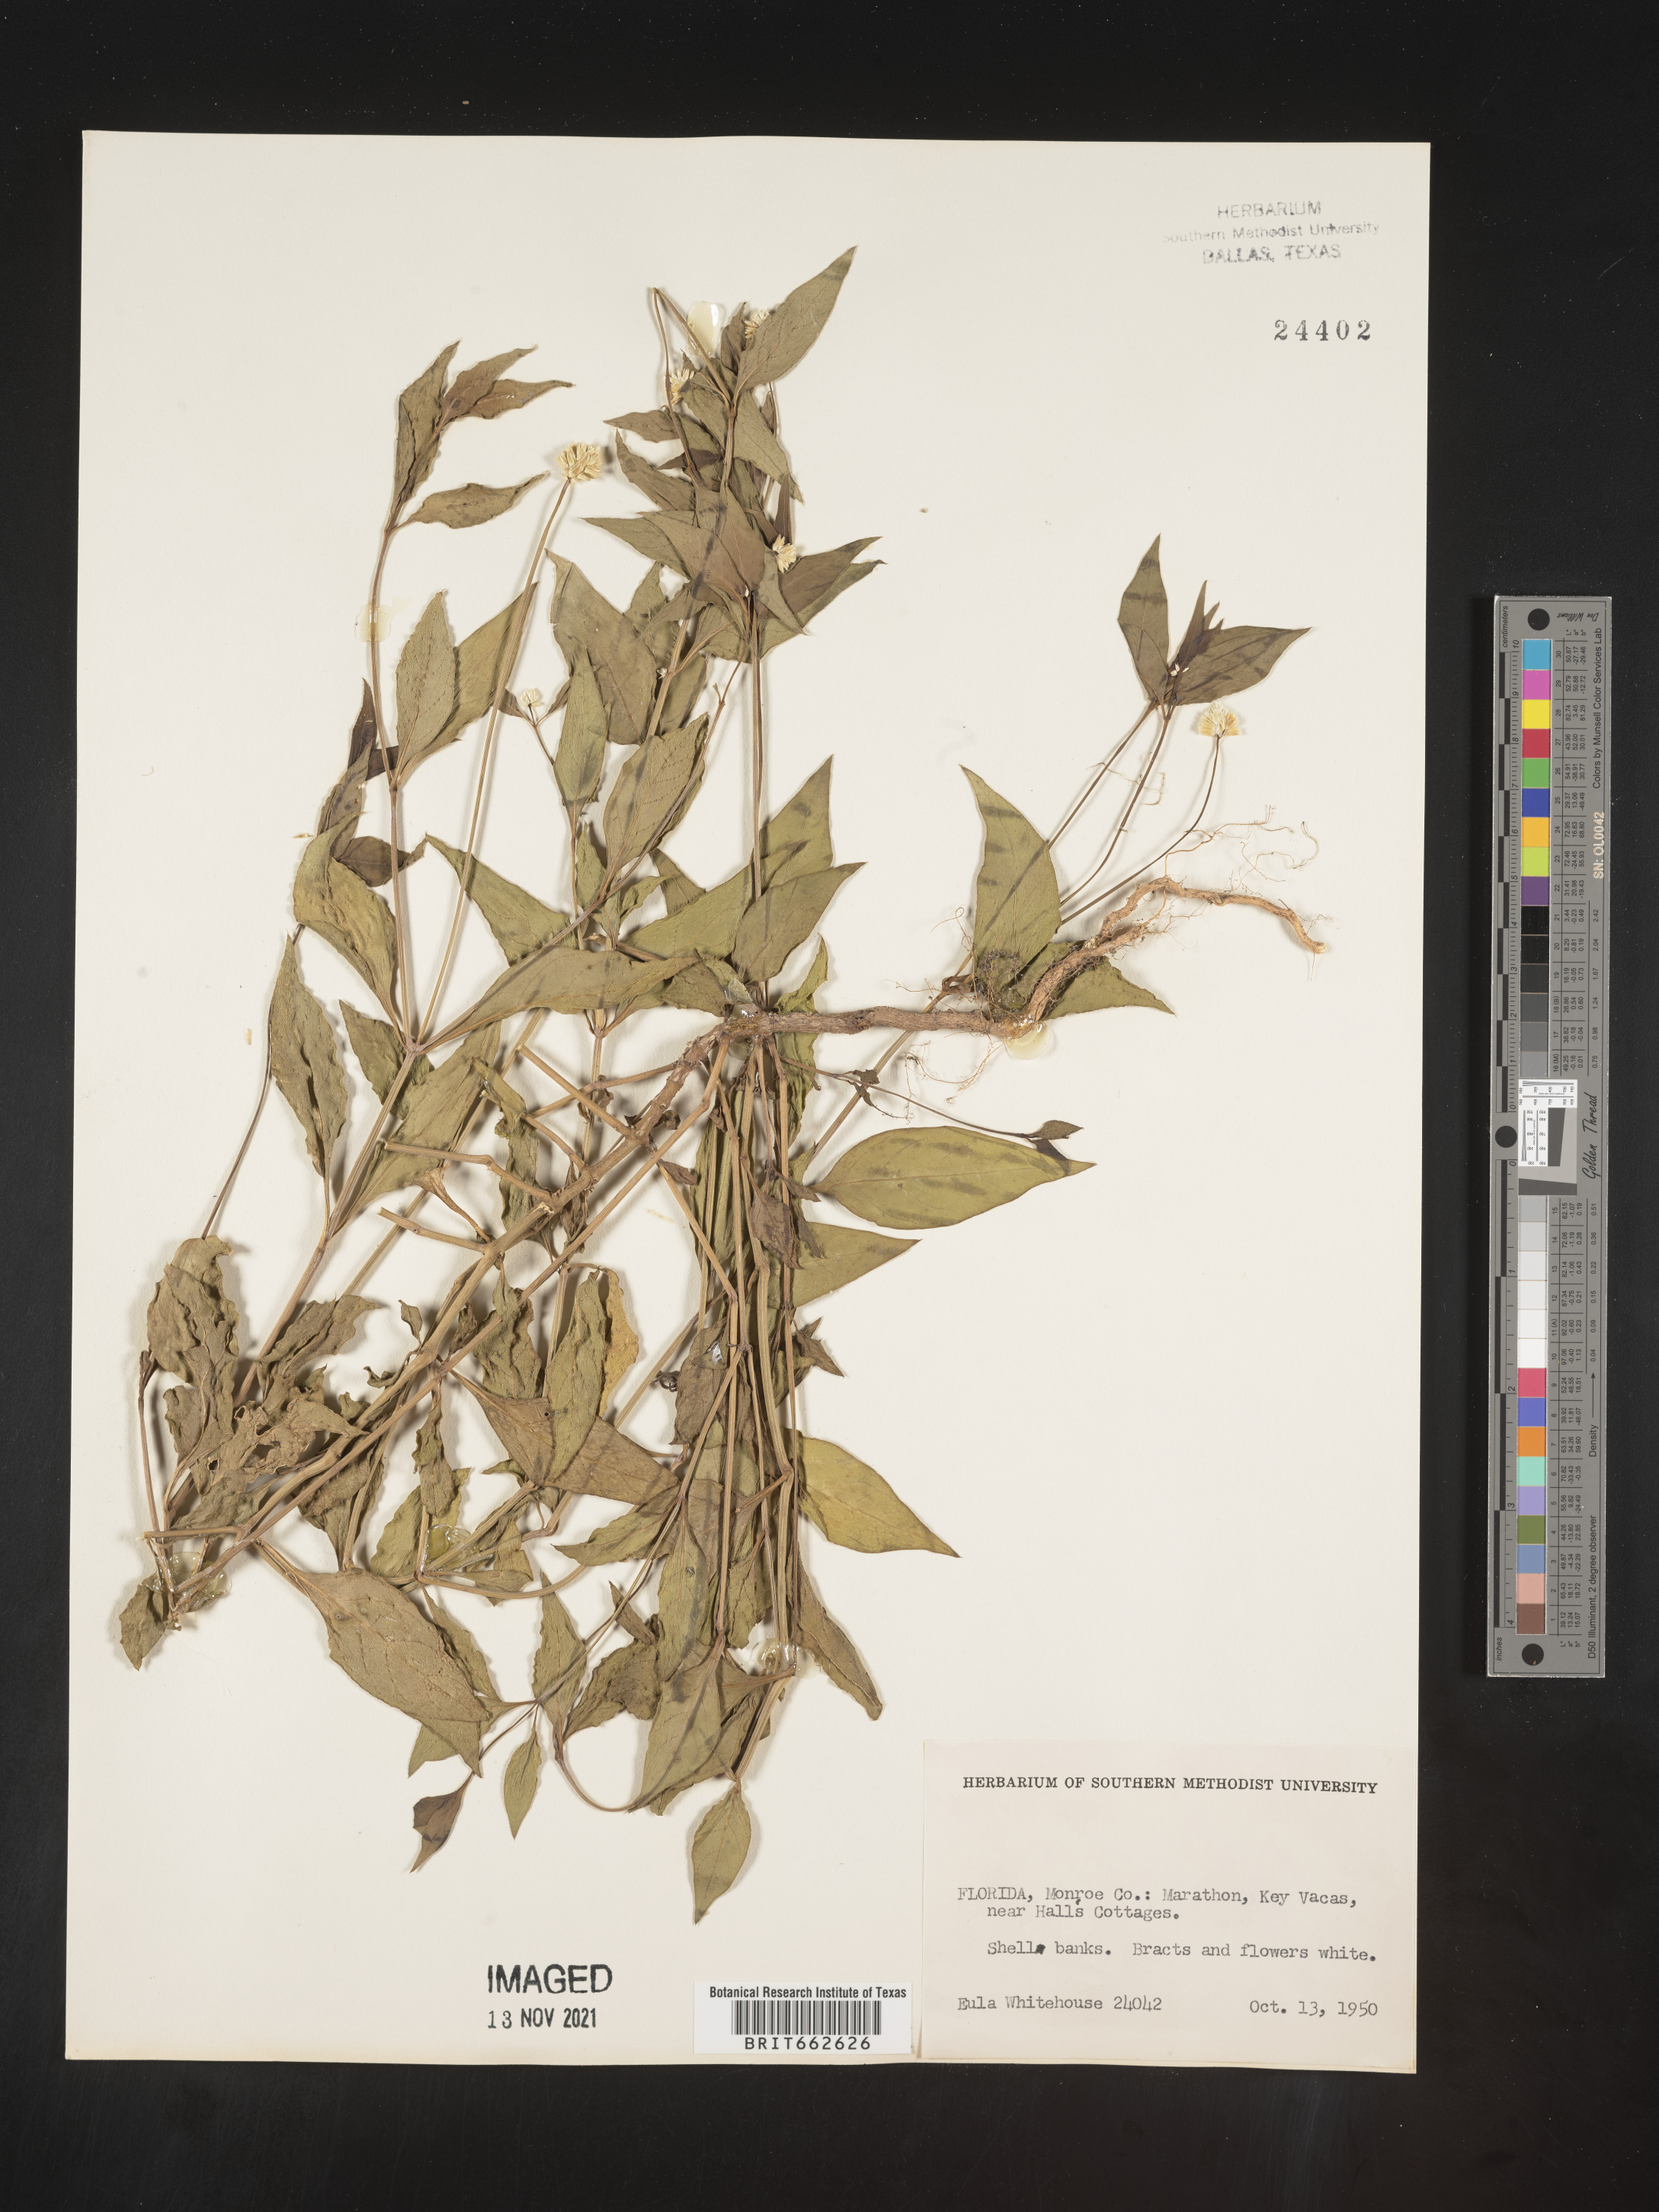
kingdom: Plantae
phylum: Tracheophyta
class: Magnoliopsida
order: Caryophyllales
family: Amaranthaceae
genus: Alternanthera
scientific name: Alternanthera ramosissima
